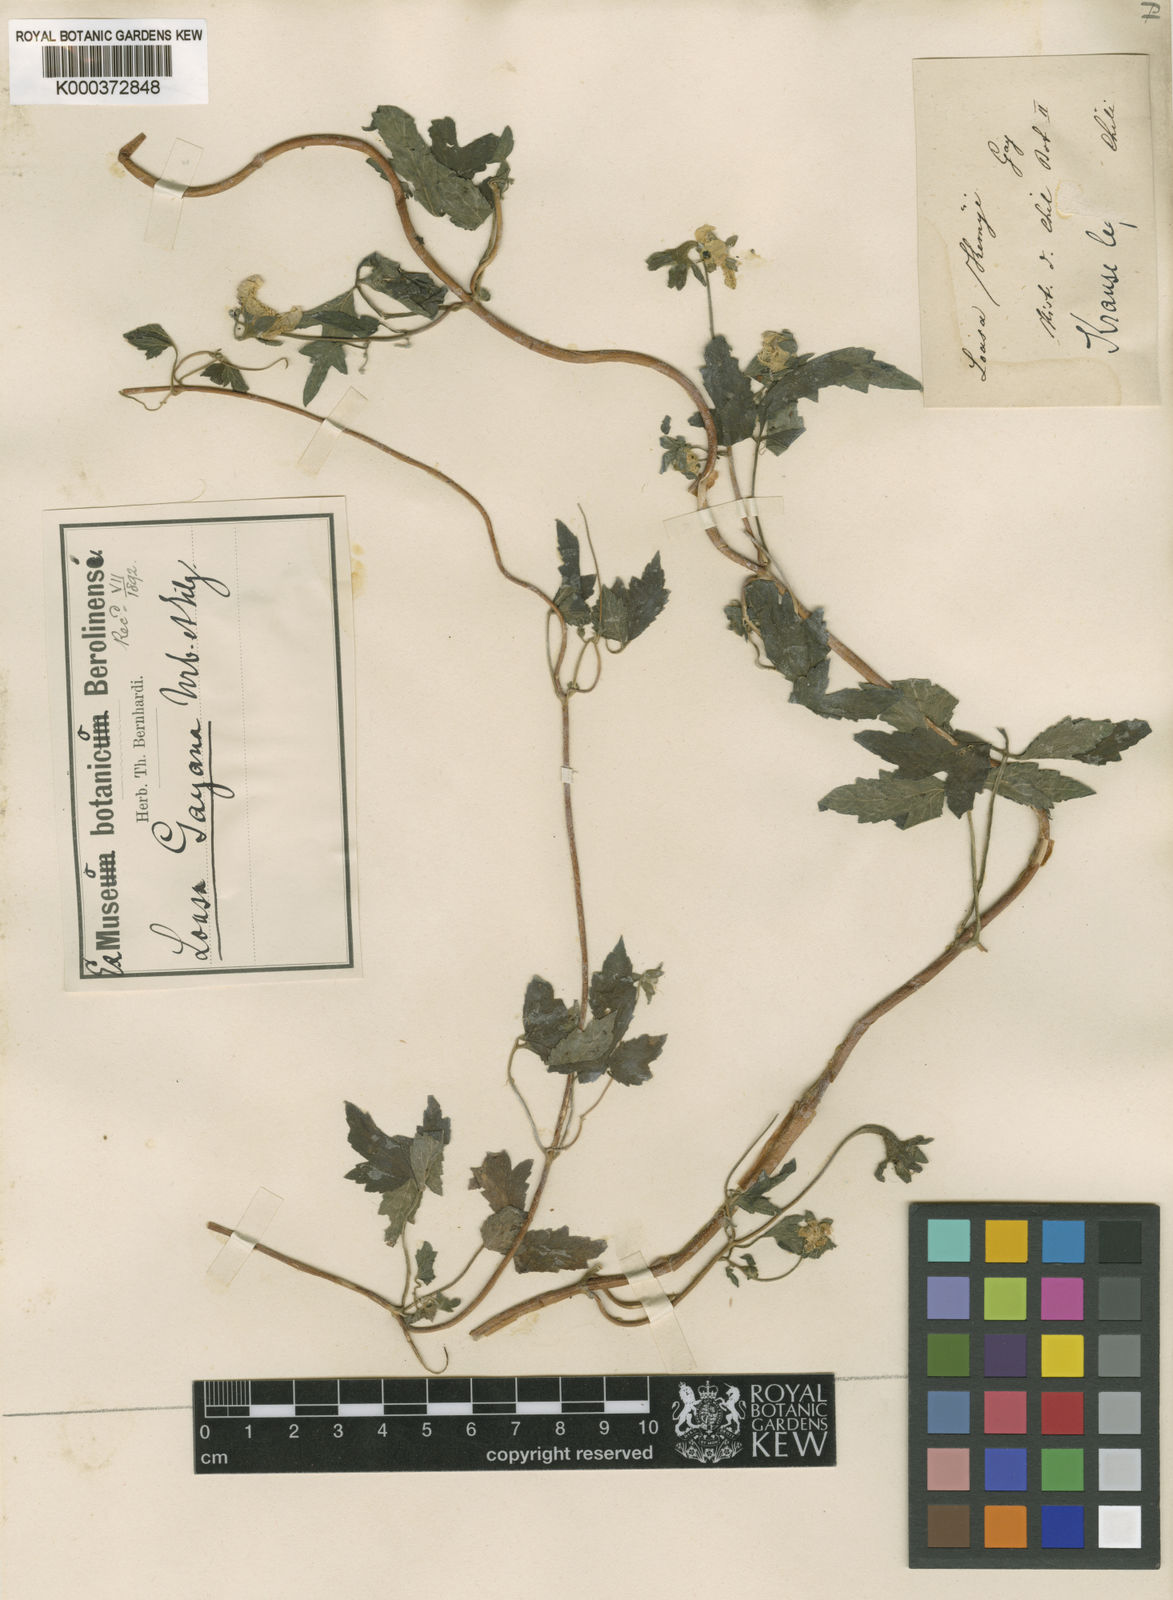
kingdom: Plantae
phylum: Tracheophyta
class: Magnoliopsida
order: Cornales
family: Loasaceae
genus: Loasa
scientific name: Loasa
